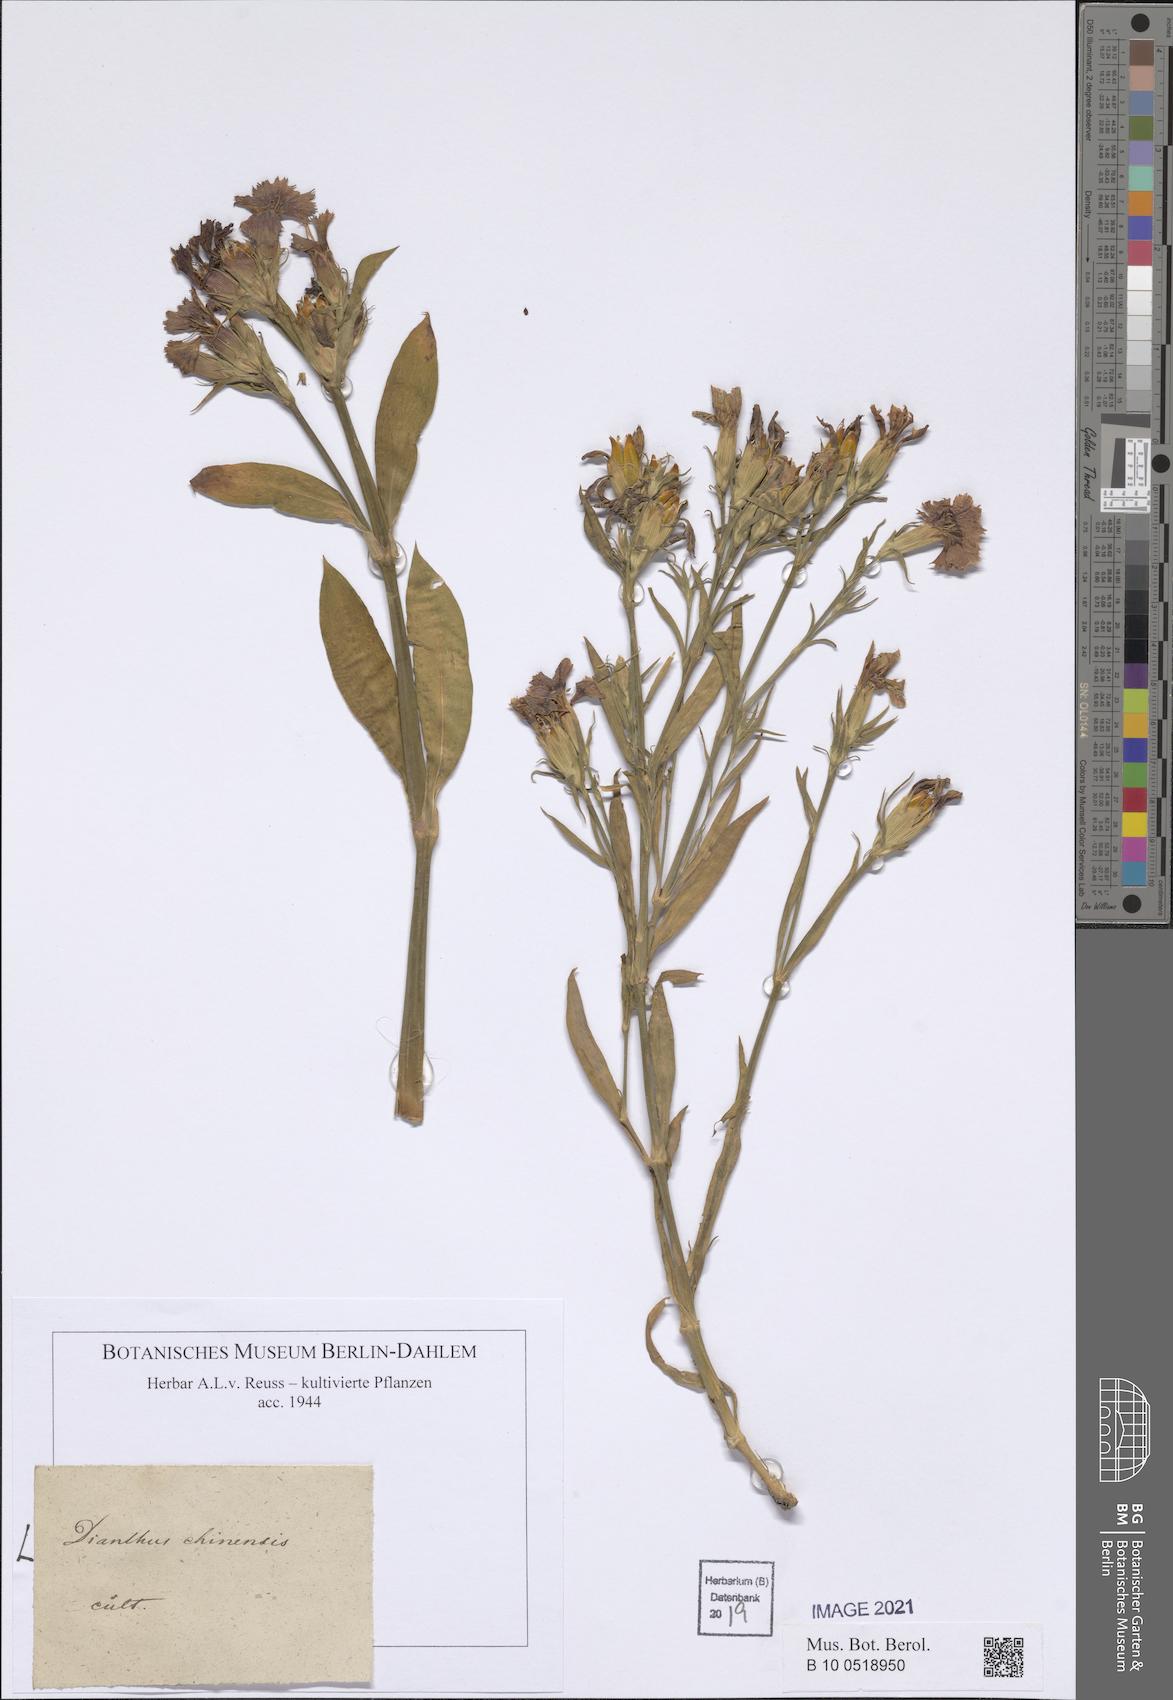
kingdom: Plantae
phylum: Tracheophyta
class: Magnoliopsida
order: Caryophyllales
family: Caryophyllaceae
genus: Dianthus
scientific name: Dianthus chinensis
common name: Rainbow pink
